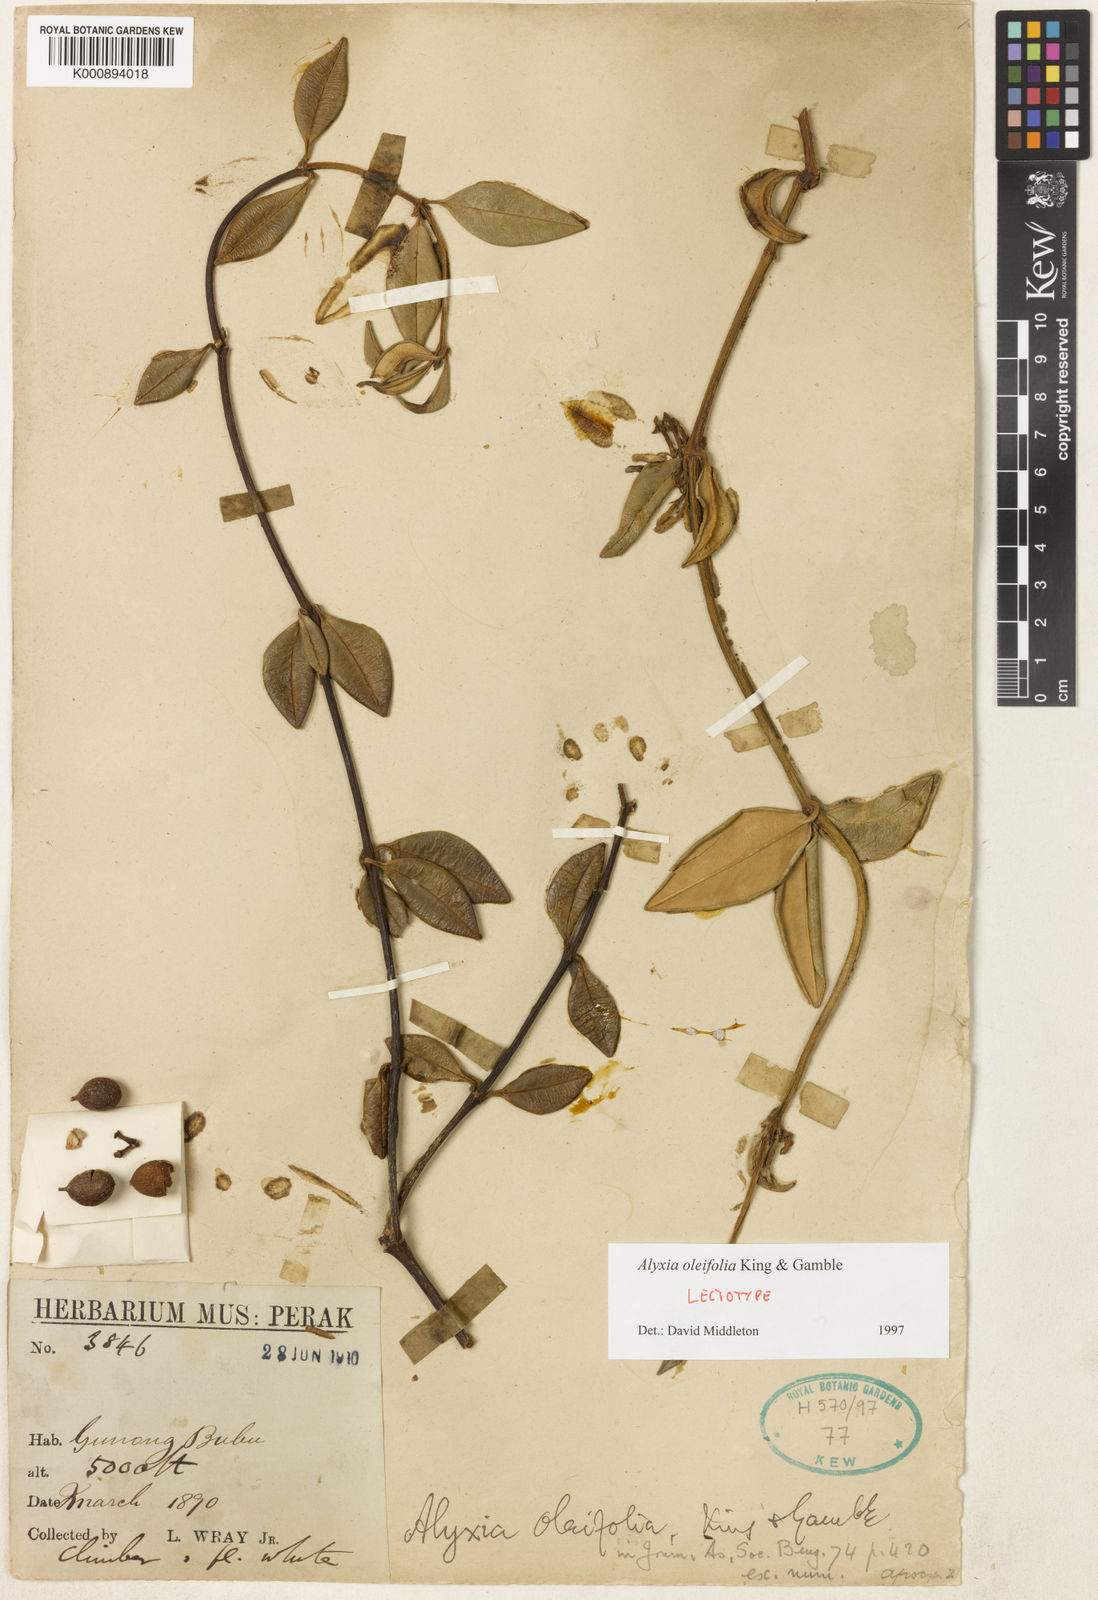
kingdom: Plantae
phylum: Tracheophyta
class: Magnoliopsida
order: Gentianales
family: Apocynaceae
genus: Alyxia
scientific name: Alyxia oleifolia
